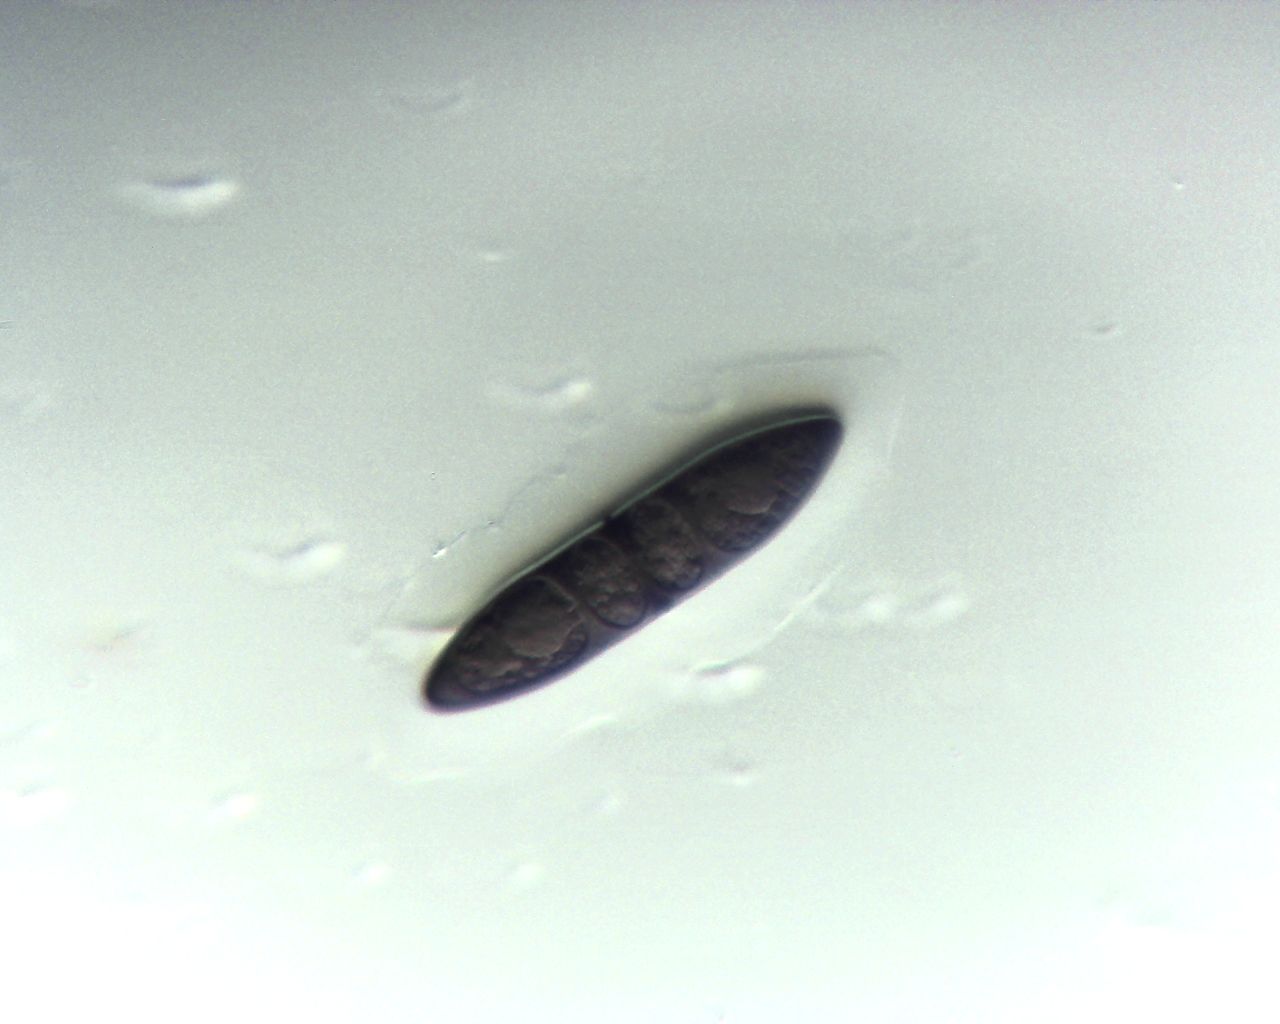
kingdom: Fungi
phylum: Ascomycota
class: Dothideomycetes
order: Pleosporales
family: Massariaceae
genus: Massaria
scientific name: Massaria inquinans
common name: ahorn-kulvulkan
